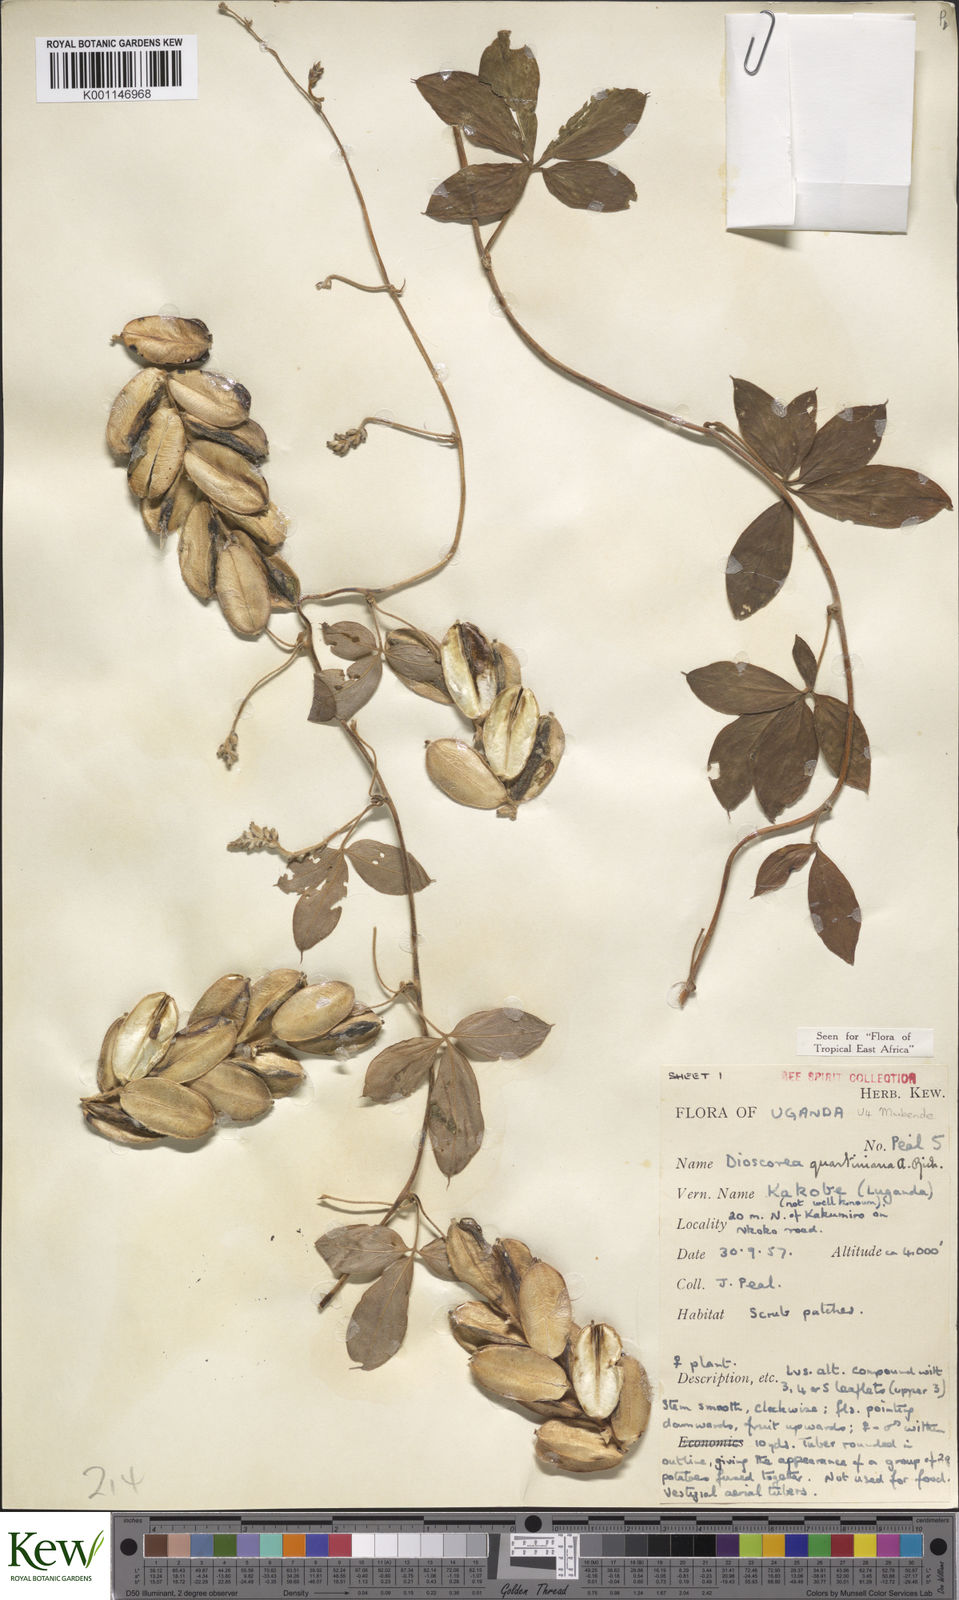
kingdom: Plantae
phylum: Tracheophyta
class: Liliopsida
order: Dioscoreales
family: Dioscoreaceae
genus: Dioscorea
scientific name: Dioscorea quartiniana
